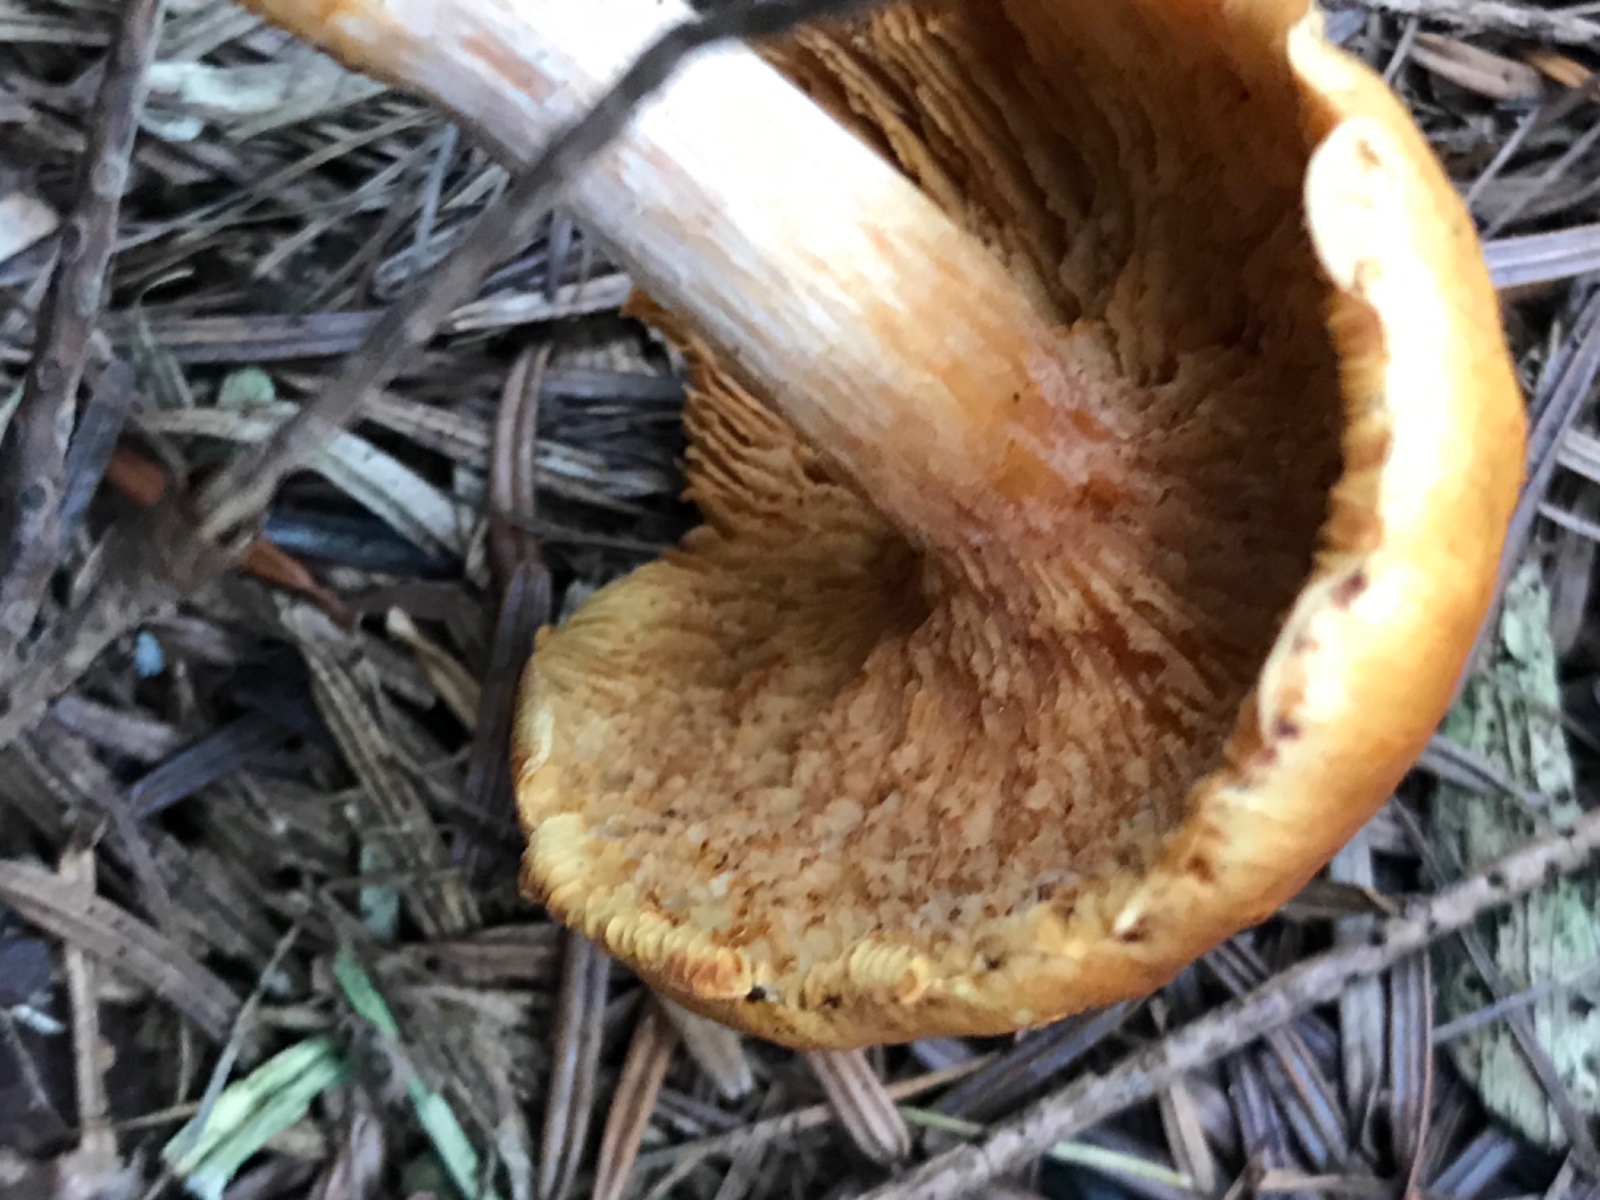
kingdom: Fungi
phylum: Basidiomycota
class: Agaricomycetes
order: Agaricales
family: Hymenogastraceae
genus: Gymnopilus
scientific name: Gymnopilus penetrans
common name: plettet flammehat
